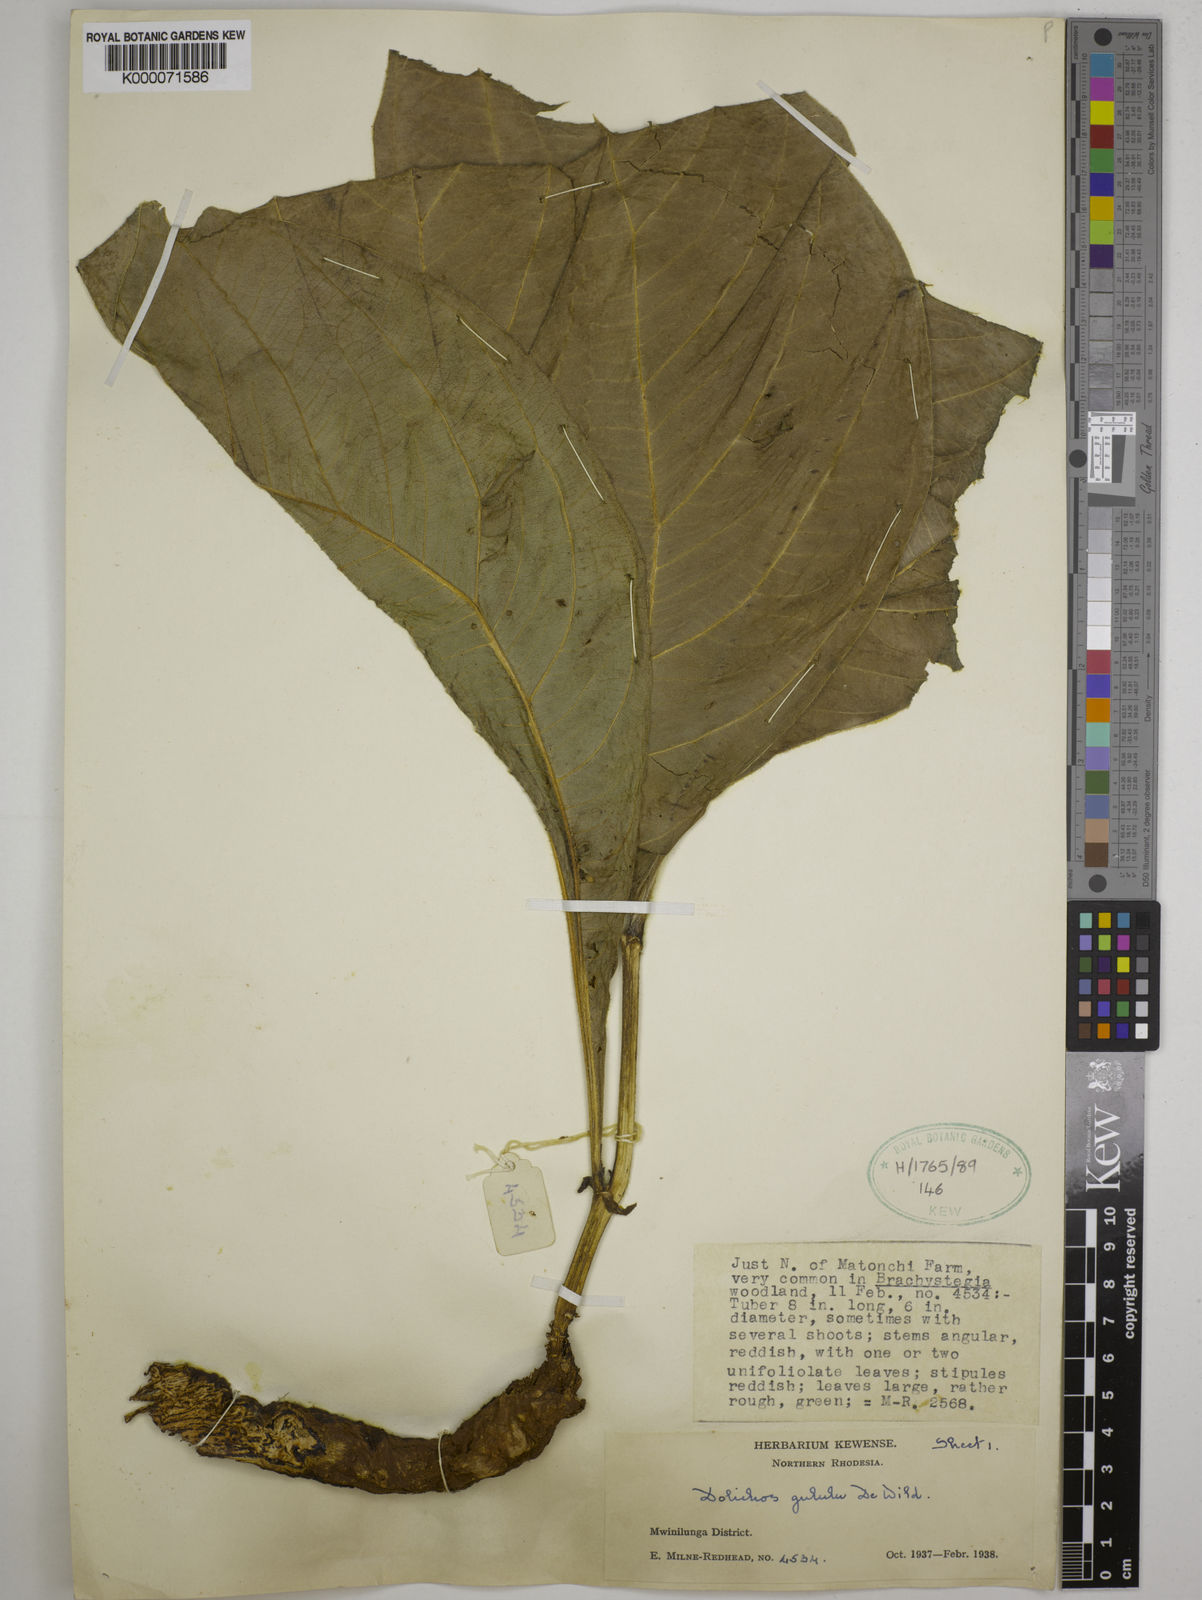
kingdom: Plantae
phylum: Tracheophyta
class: Magnoliopsida
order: Fabales
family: Fabaceae
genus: Dolichos
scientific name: Dolichos gululu
